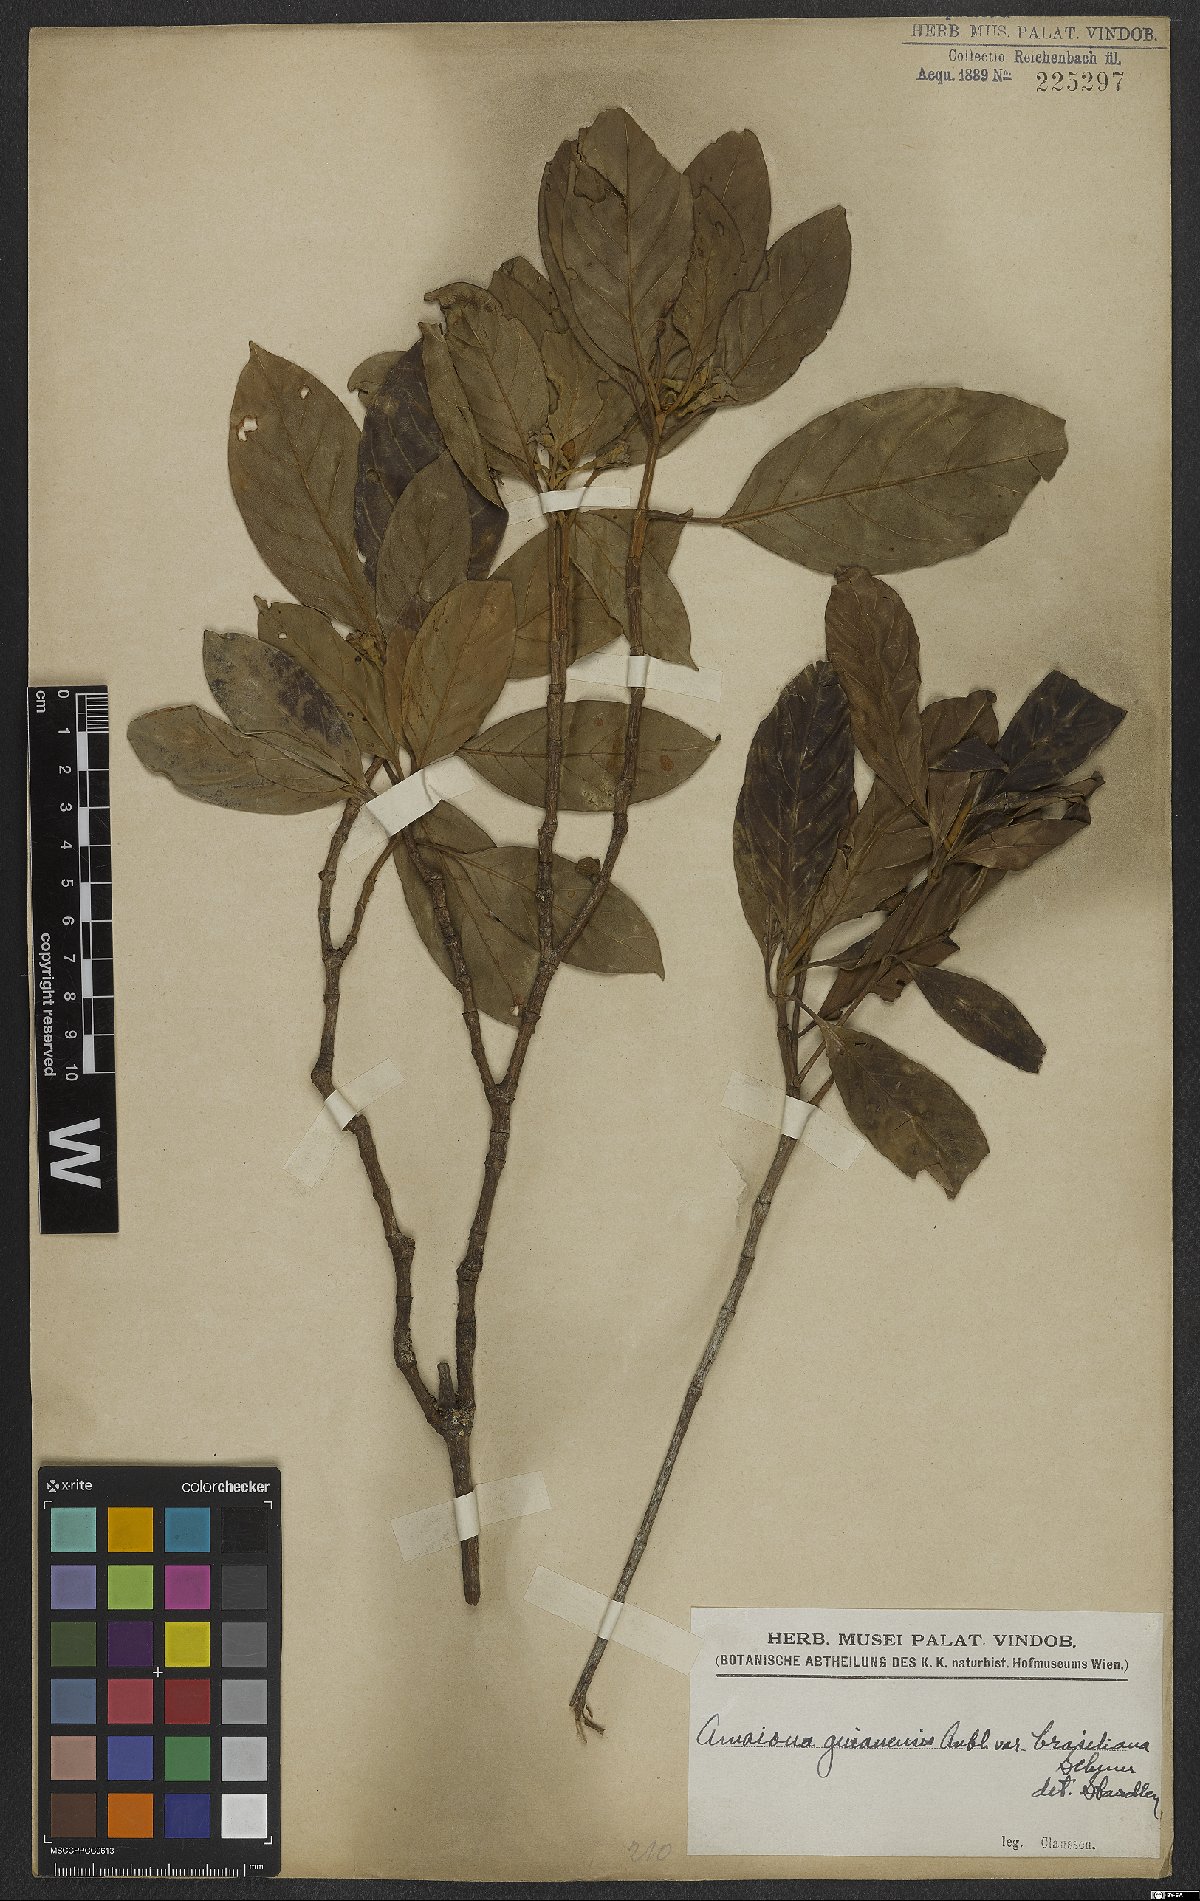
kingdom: Plantae
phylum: Tracheophyta
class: Magnoliopsida
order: Gentianales
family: Rubiaceae
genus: Amaioua
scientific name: Amaioua guianensis
